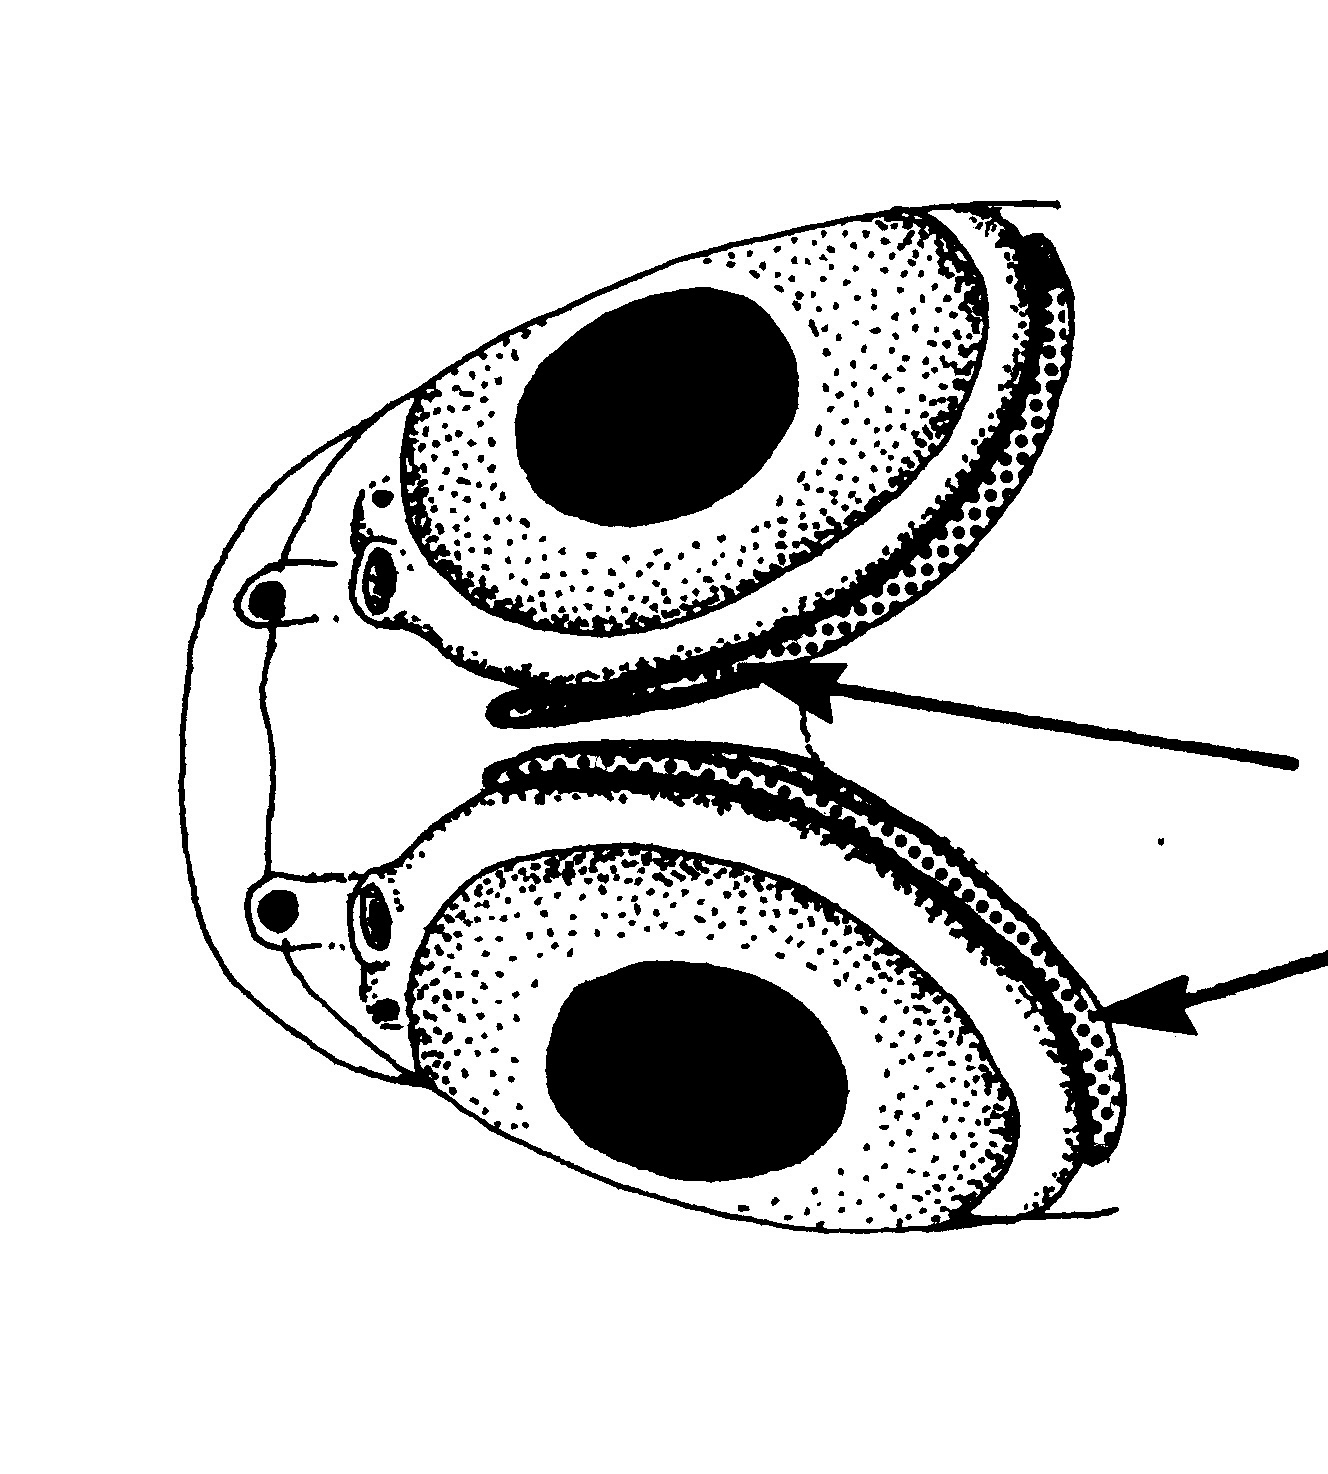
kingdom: Animalia
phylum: Chordata
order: Perciformes
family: Gobiidae
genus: Trimma
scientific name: Trimma corallinum
